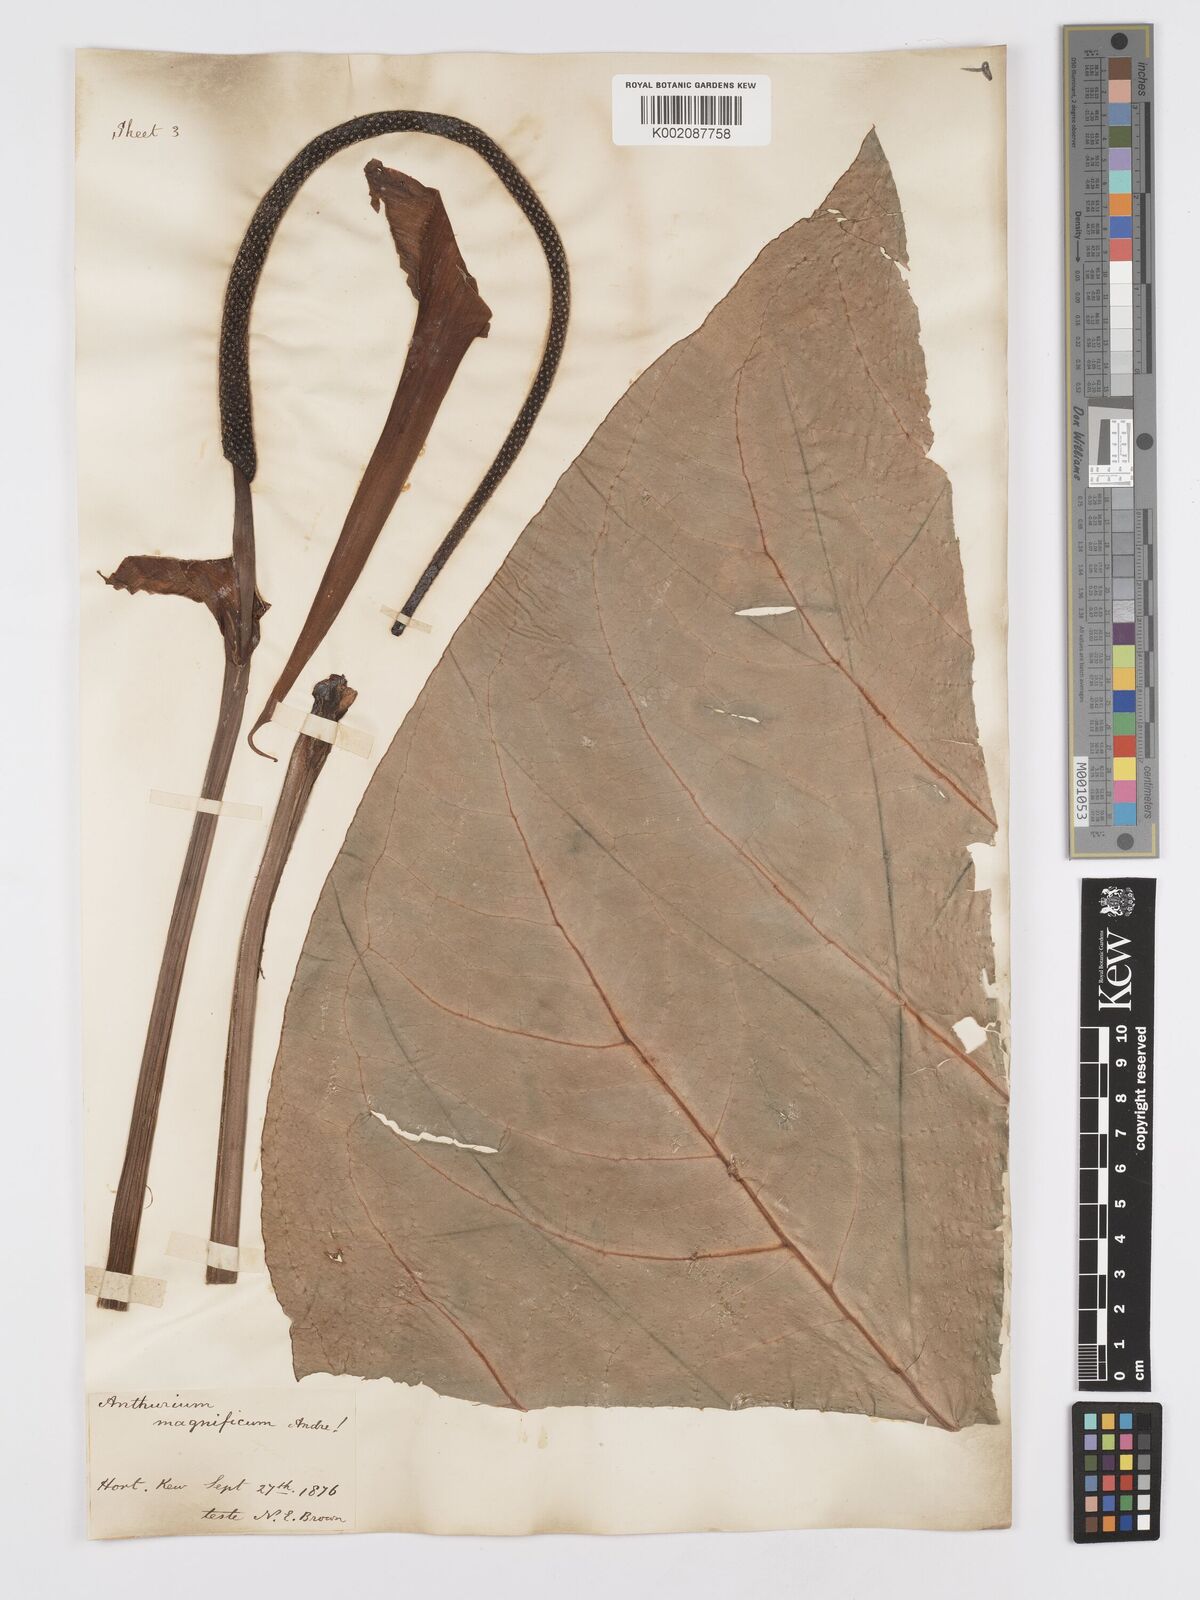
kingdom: Plantae
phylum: Tracheophyta
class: Liliopsida
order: Alismatales
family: Araceae
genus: Anthurium
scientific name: Anthurium magnificum
